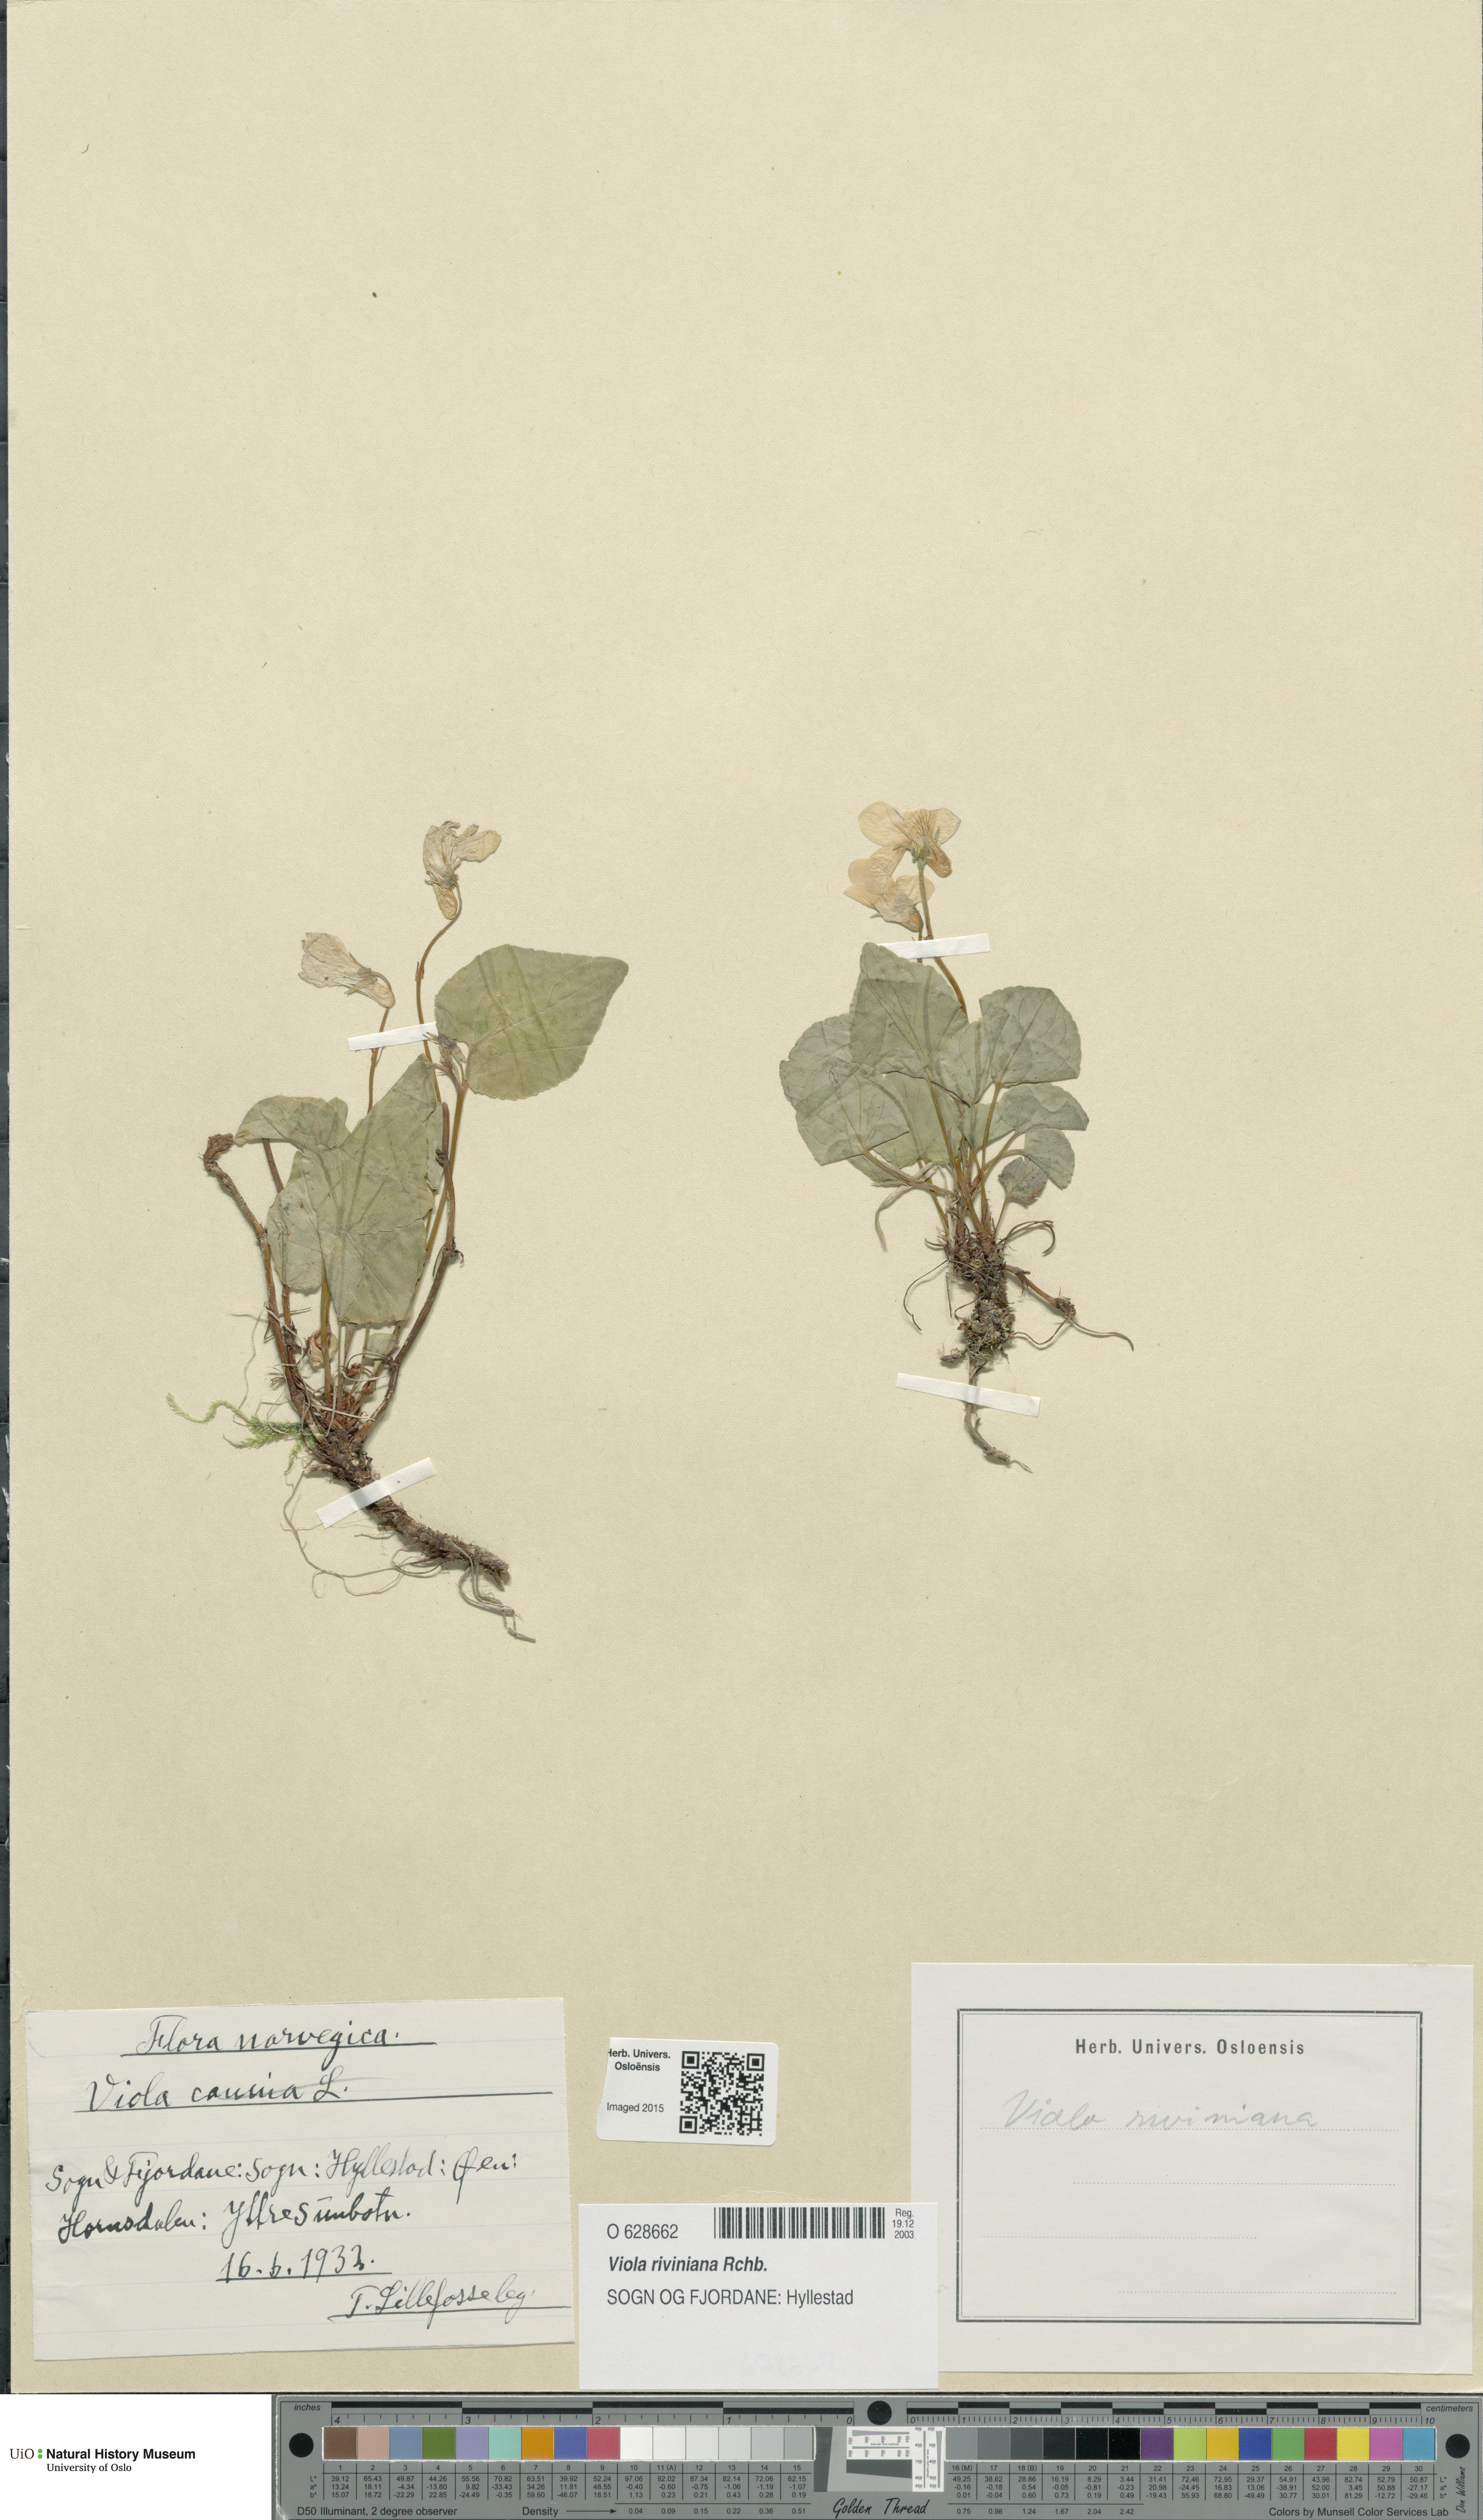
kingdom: Plantae
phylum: Tracheophyta
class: Magnoliopsida
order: Malpighiales
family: Violaceae
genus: Viola
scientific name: Viola riviniana
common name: Common dog-violet
